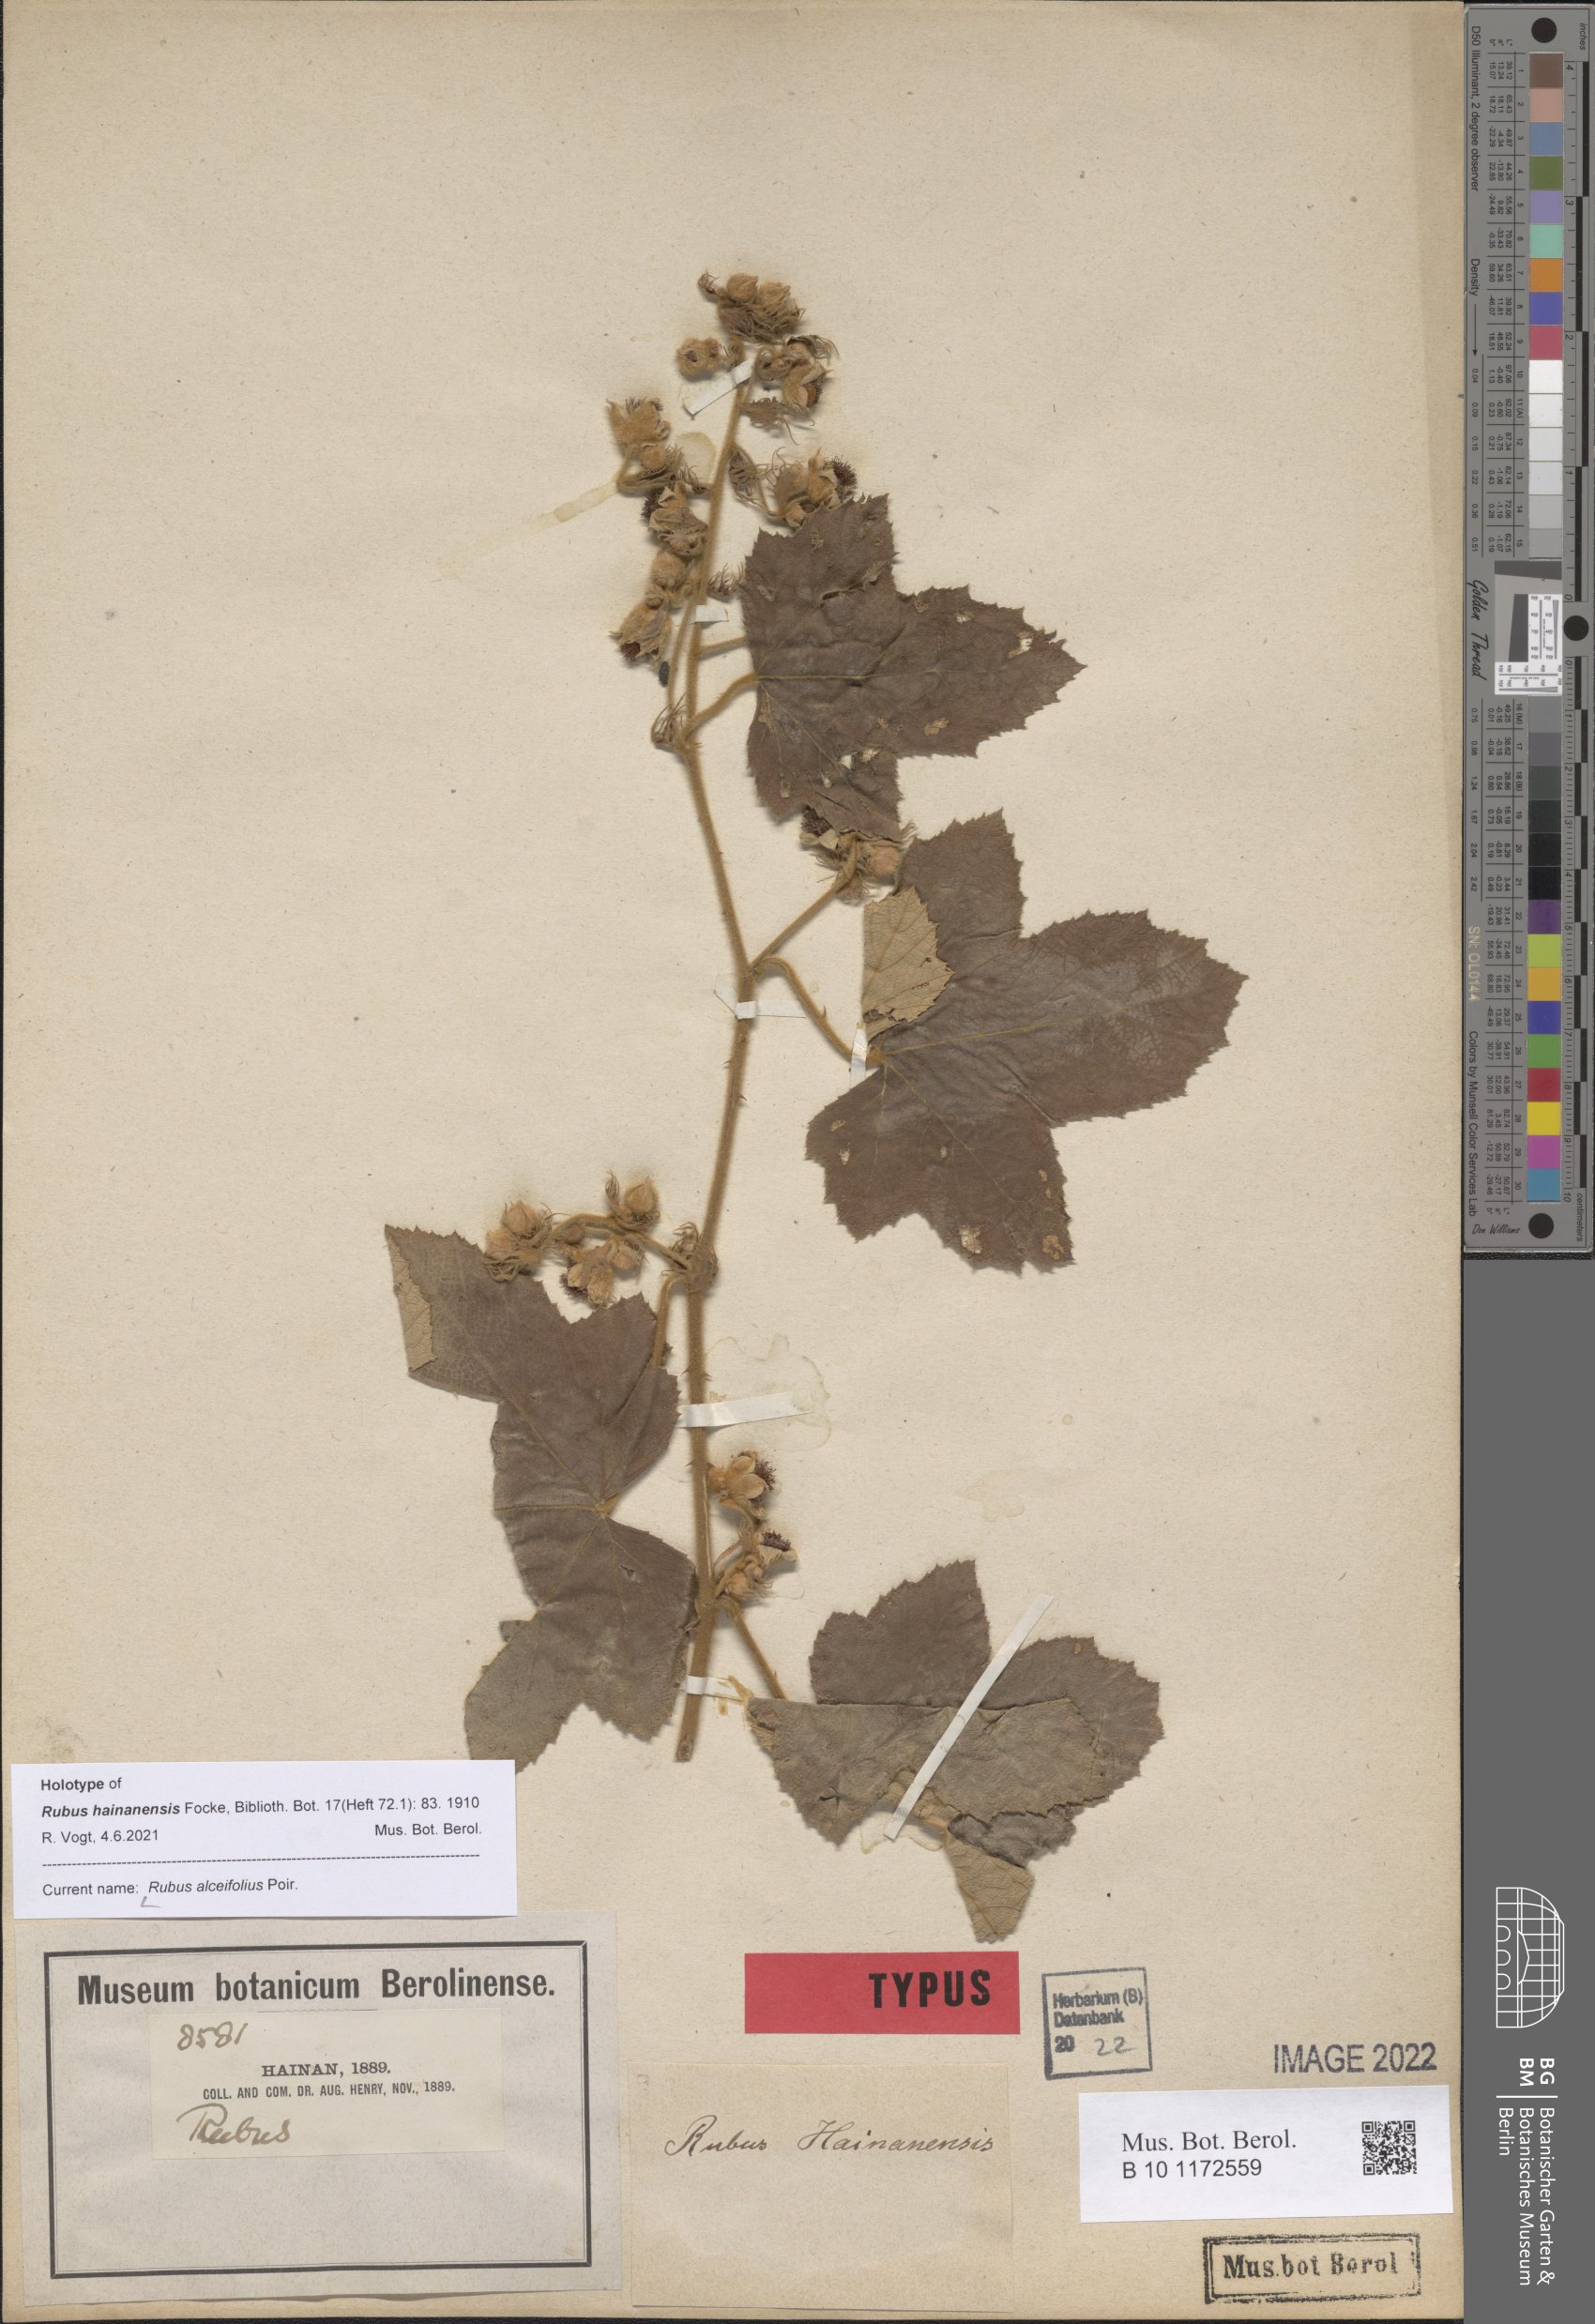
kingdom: Plantae
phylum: Tracheophyta
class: Magnoliopsida
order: Rosales
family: Rosaceae
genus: Rubus
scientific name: Rubus alceifolius
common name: Giant bramble
